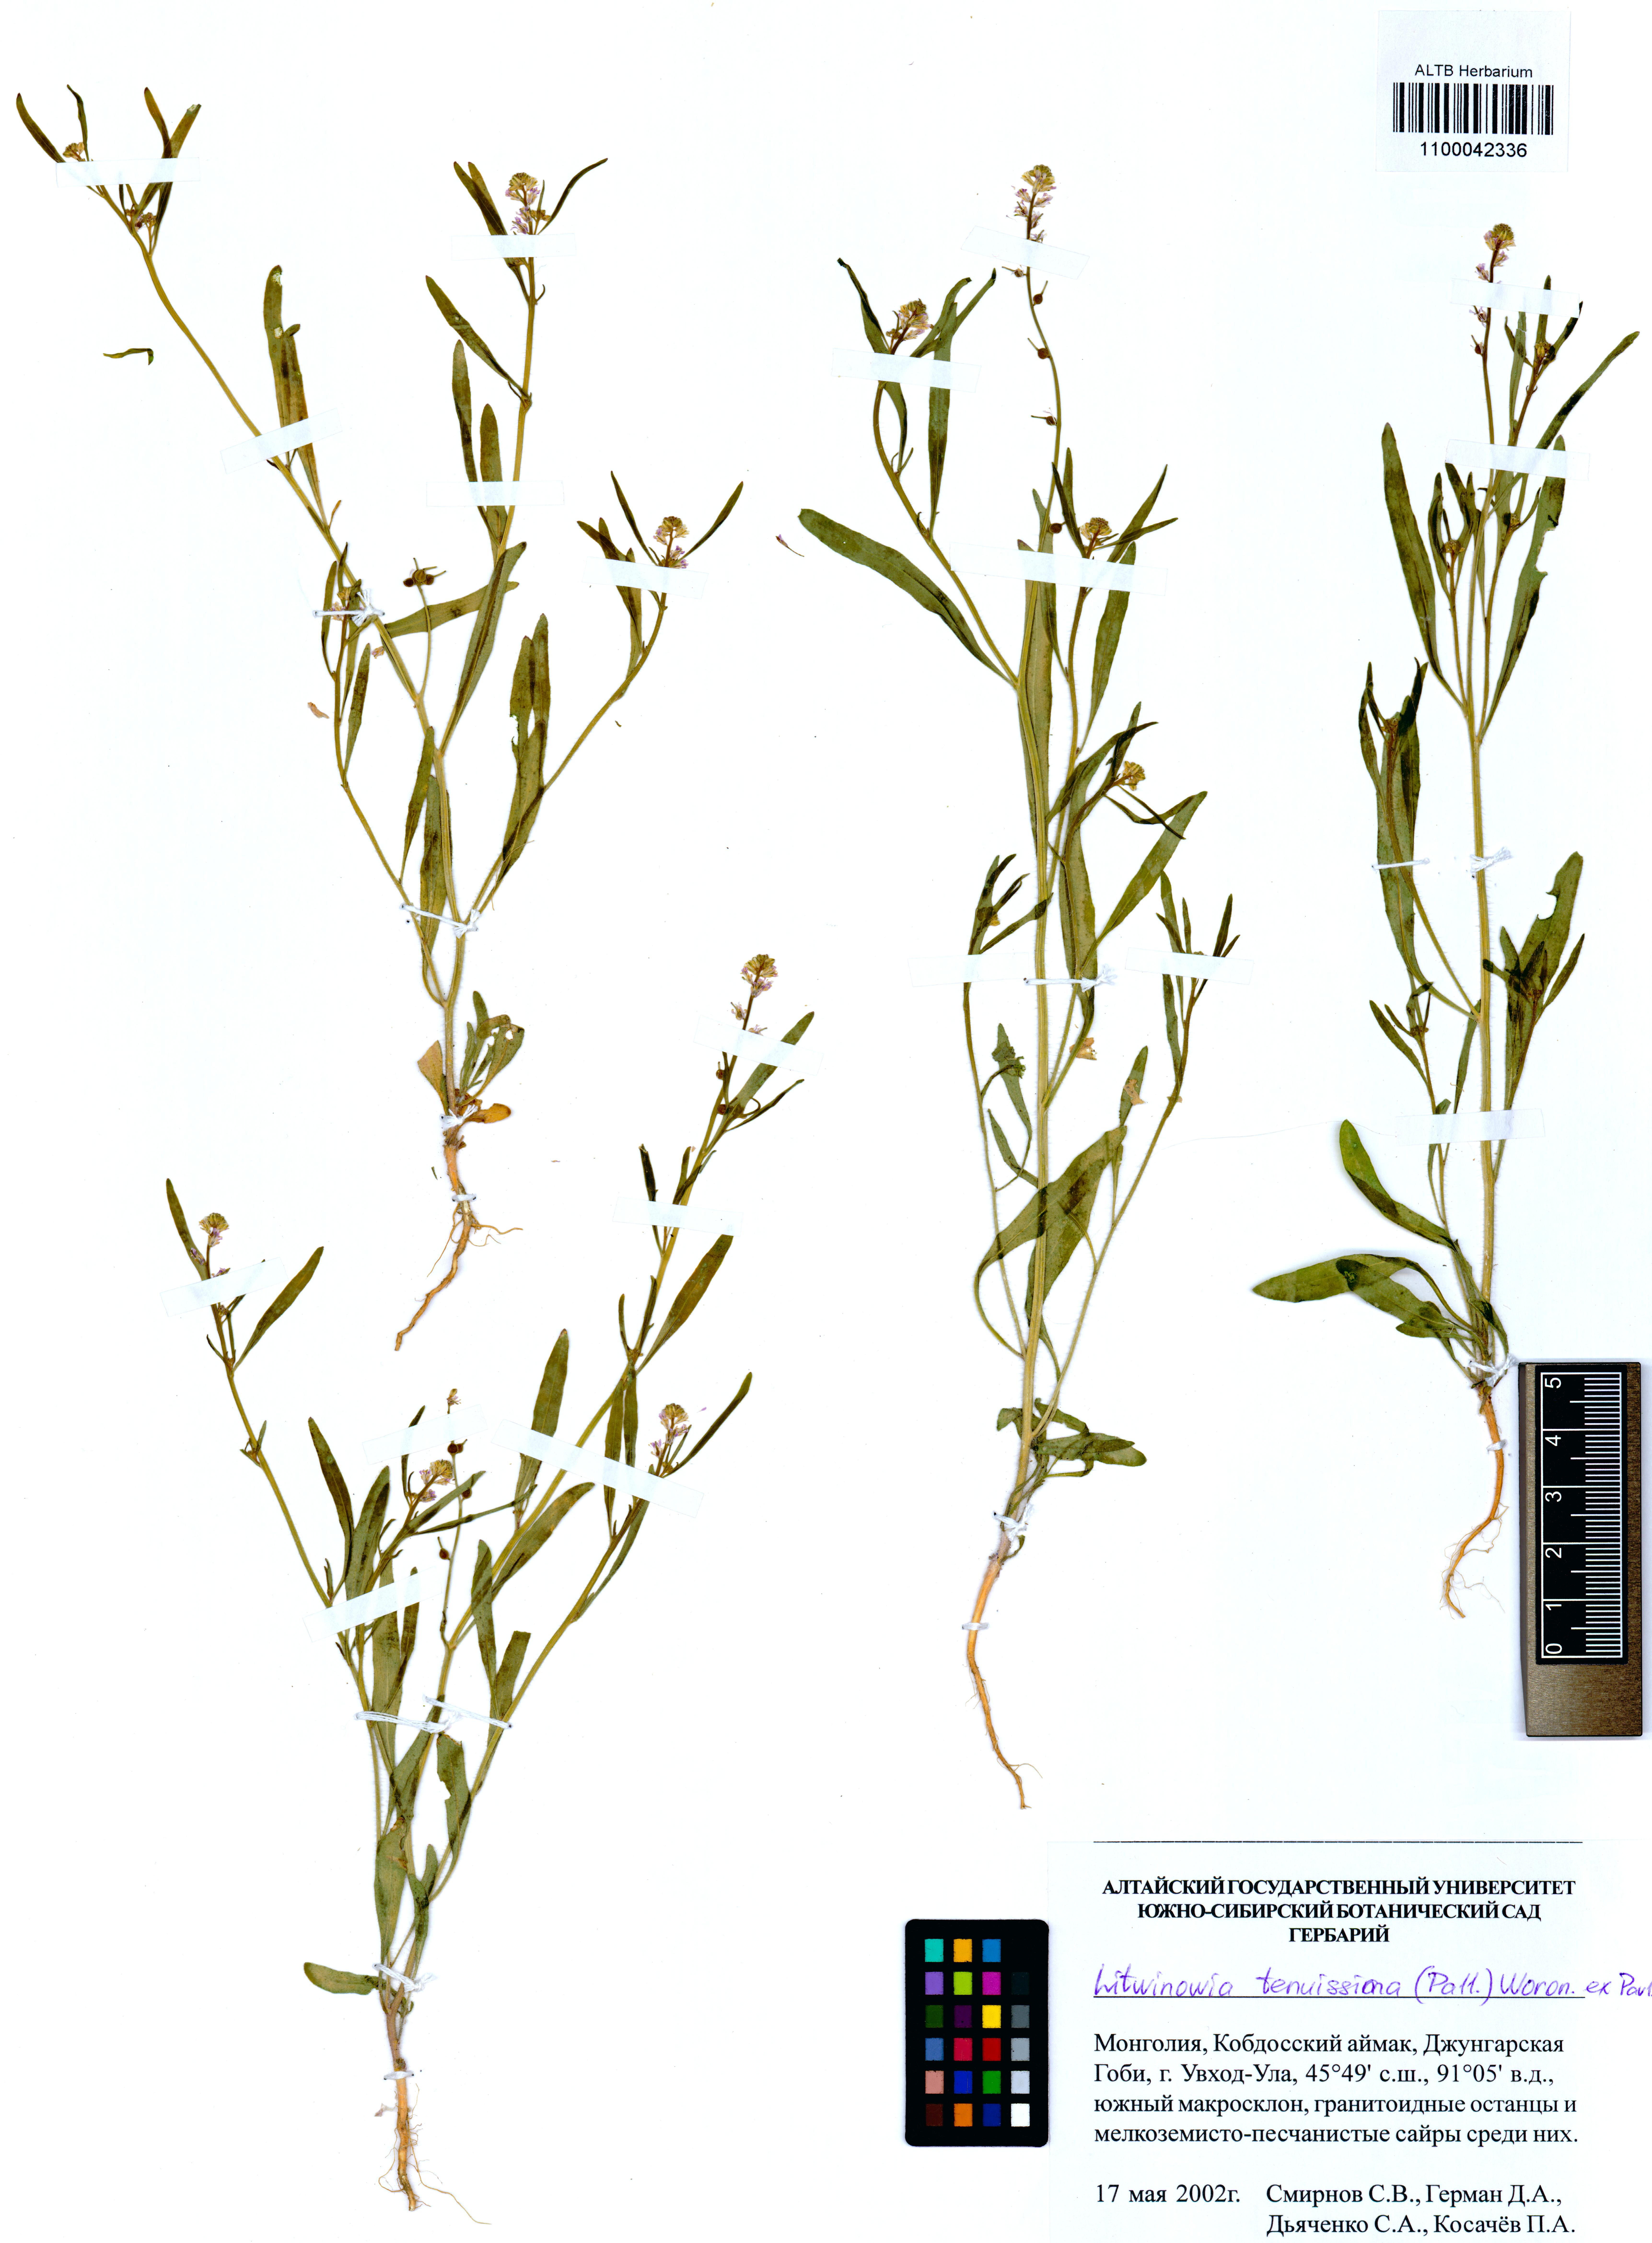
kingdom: Plantae
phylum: Tracheophyta
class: Magnoliopsida
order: Brassicales
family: Brassicaceae
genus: Litwinowia
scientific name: Litwinowia tenuissima
